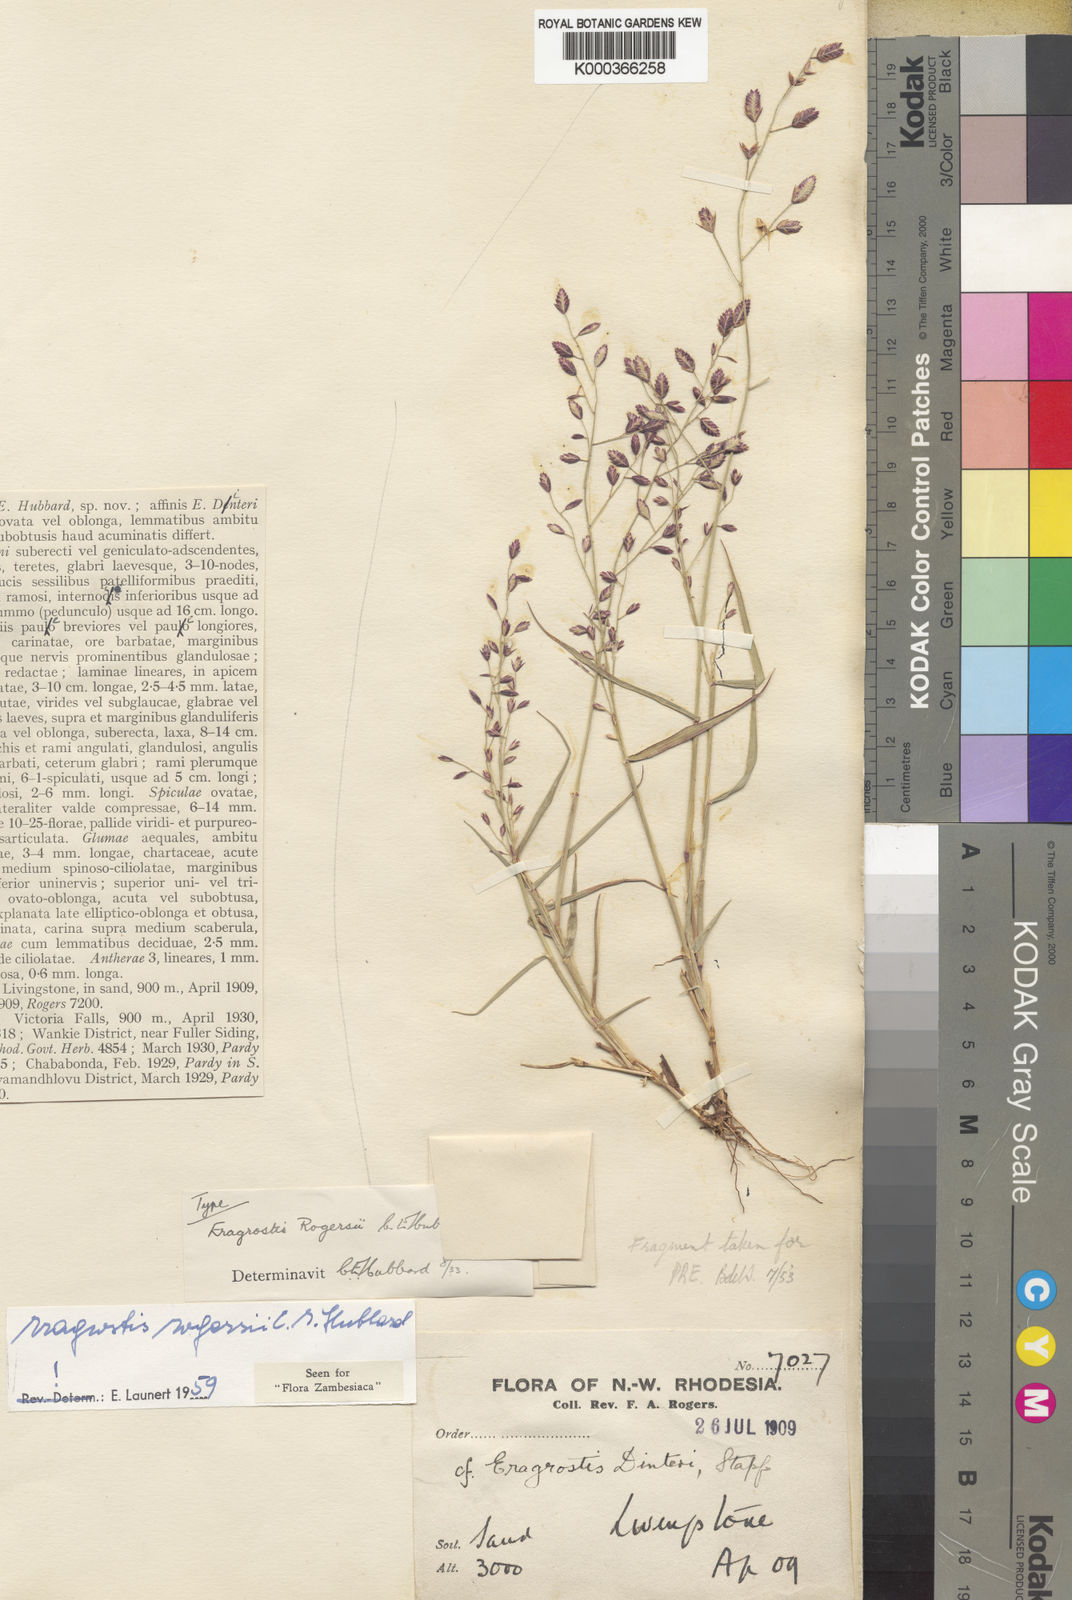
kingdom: Plantae
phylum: Tracheophyta
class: Liliopsida
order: Poales
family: Poaceae
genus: Eragrostis
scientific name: Eragrostis rogersii
